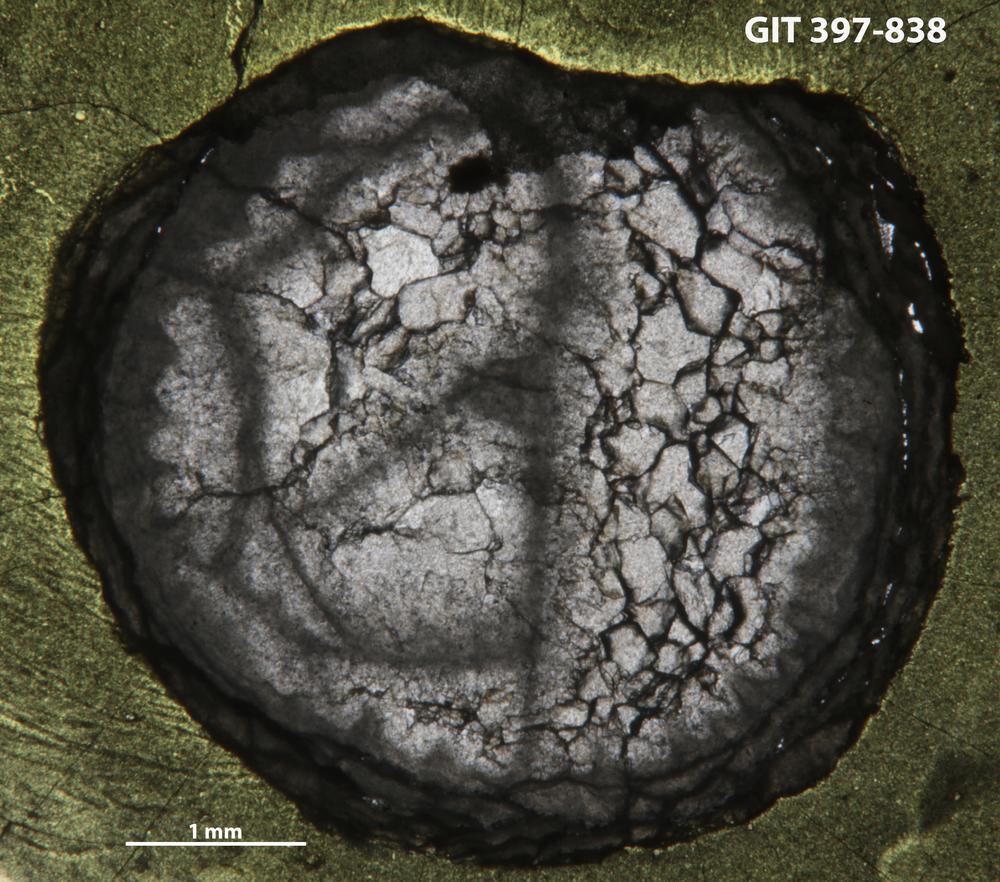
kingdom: Animalia
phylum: Cnidaria
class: Anthozoa
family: Cystiphyllidae
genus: Microplasma
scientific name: Microplasma
